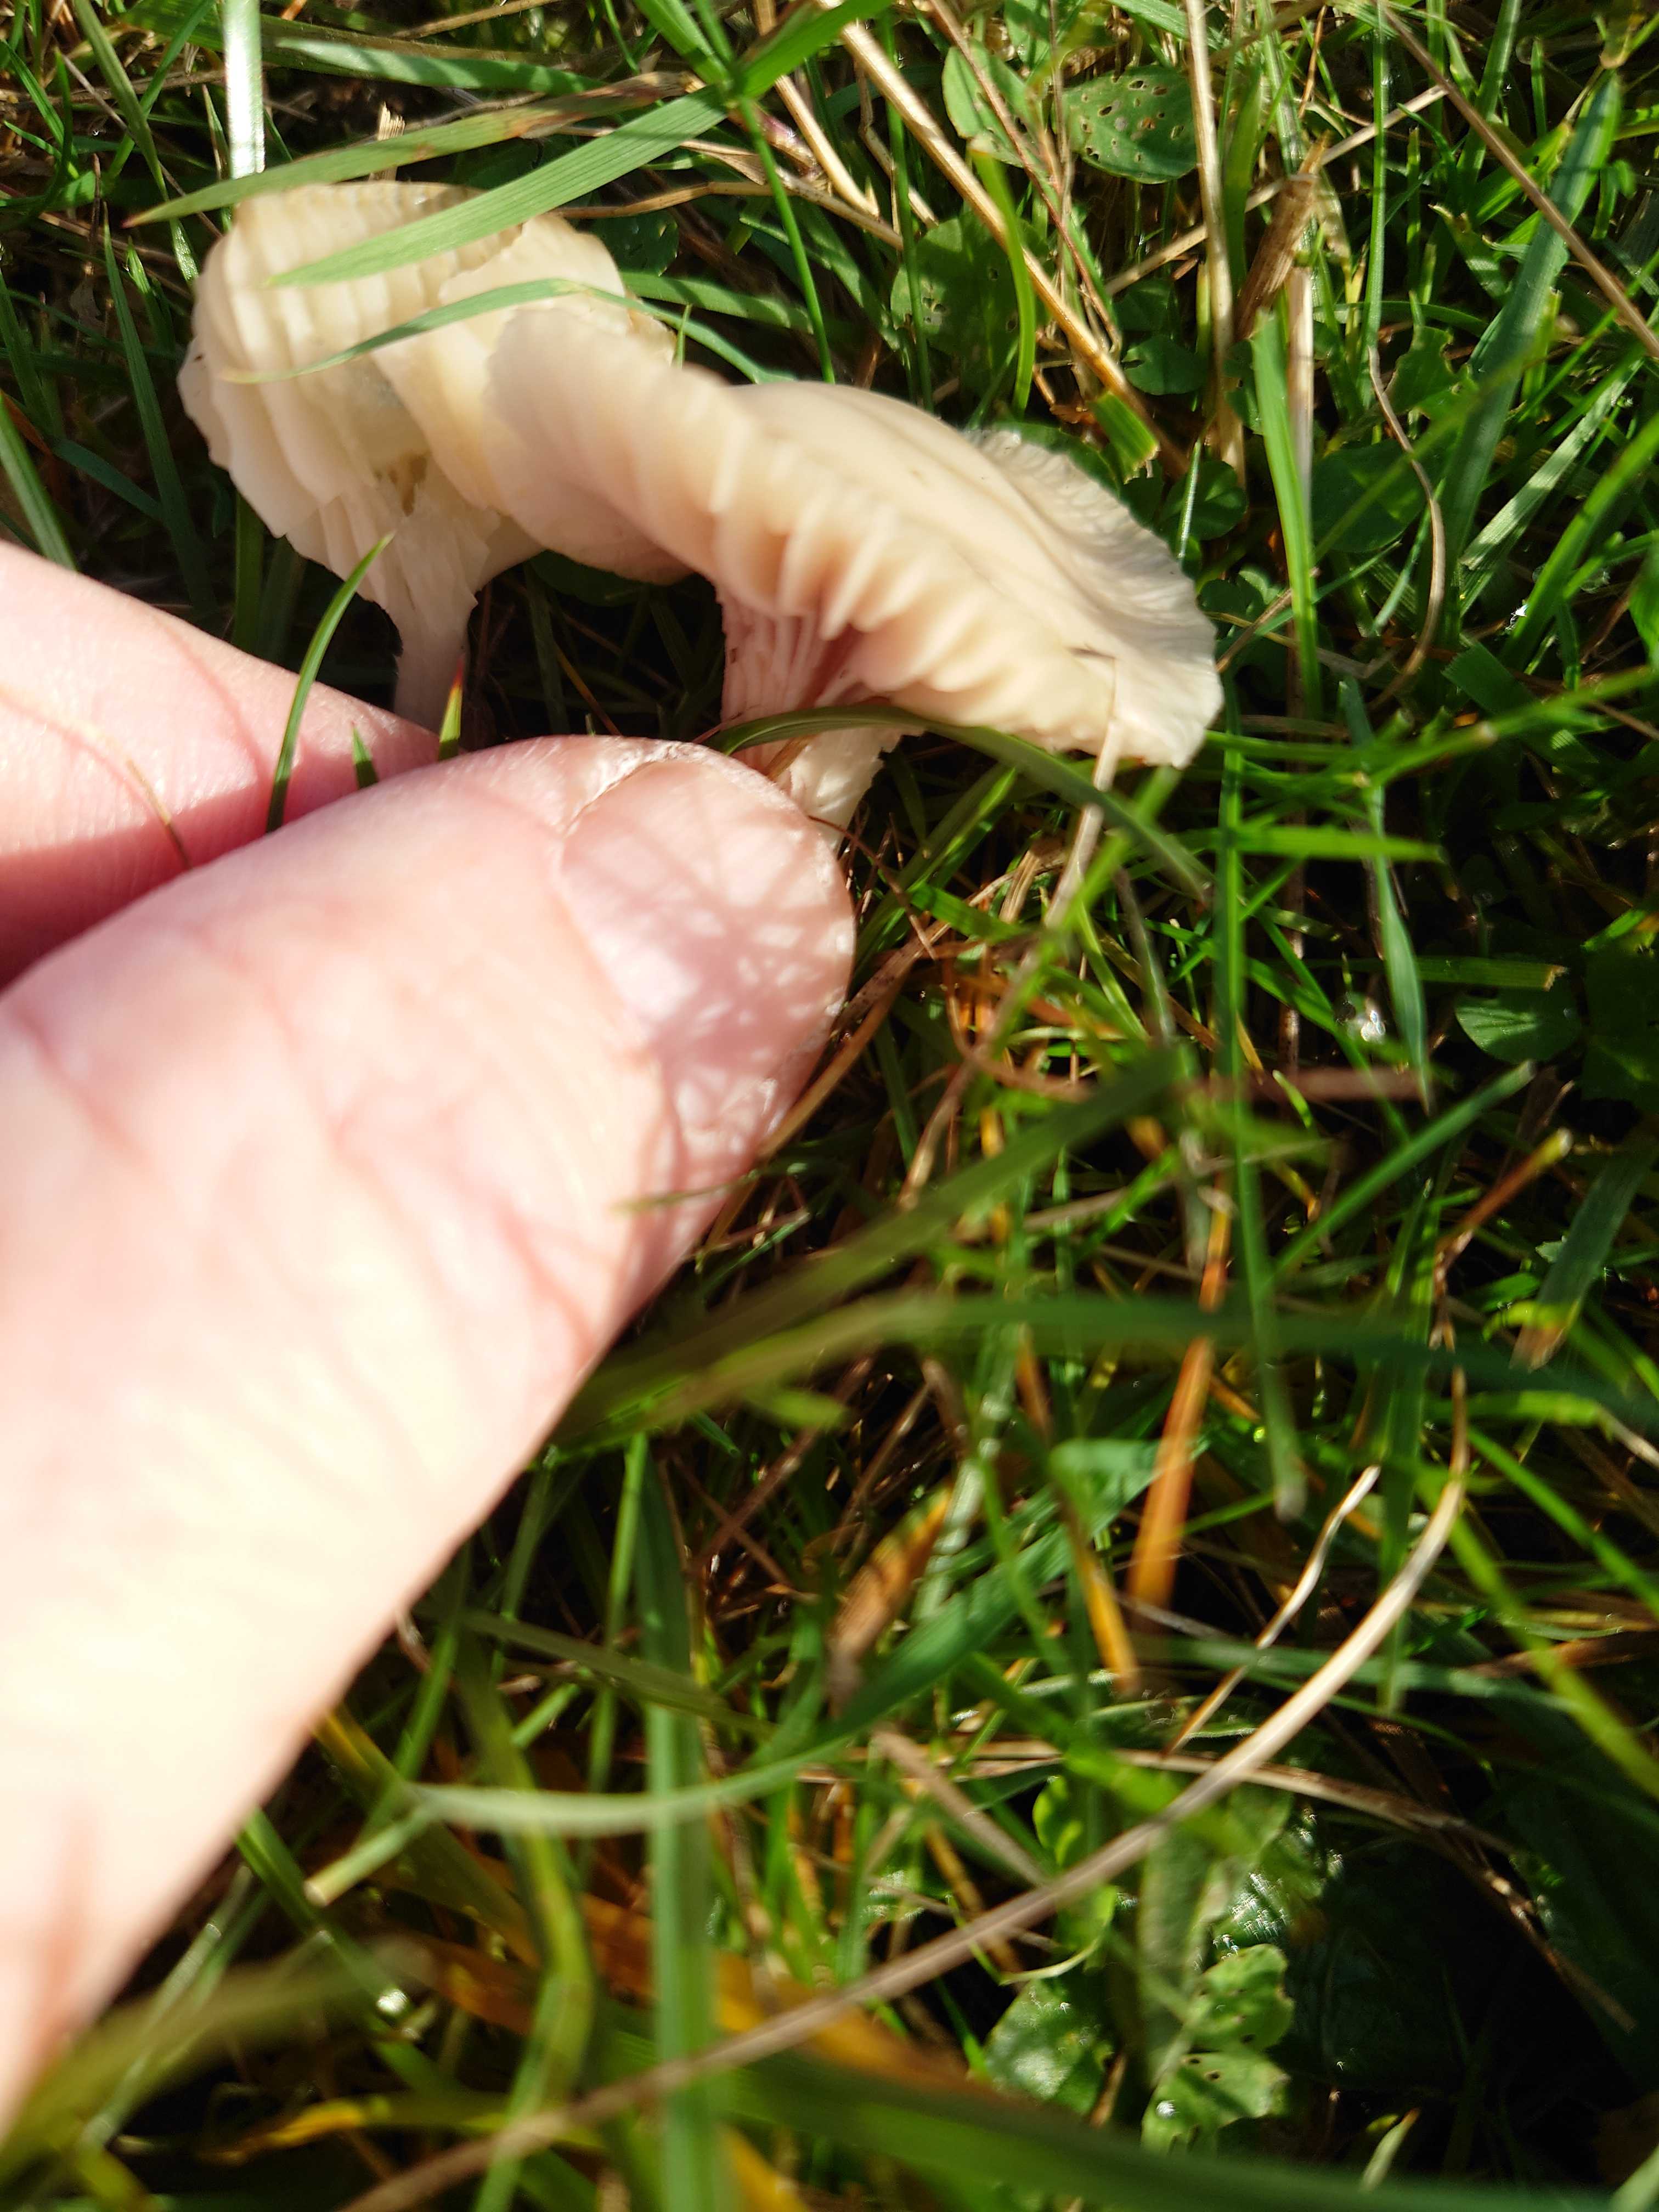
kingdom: Fungi
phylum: Basidiomycota
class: Agaricomycetes
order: Agaricales
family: Hygrophoraceae
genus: Cuphophyllus
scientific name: Cuphophyllus virgineus
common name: snehvid vokshat
